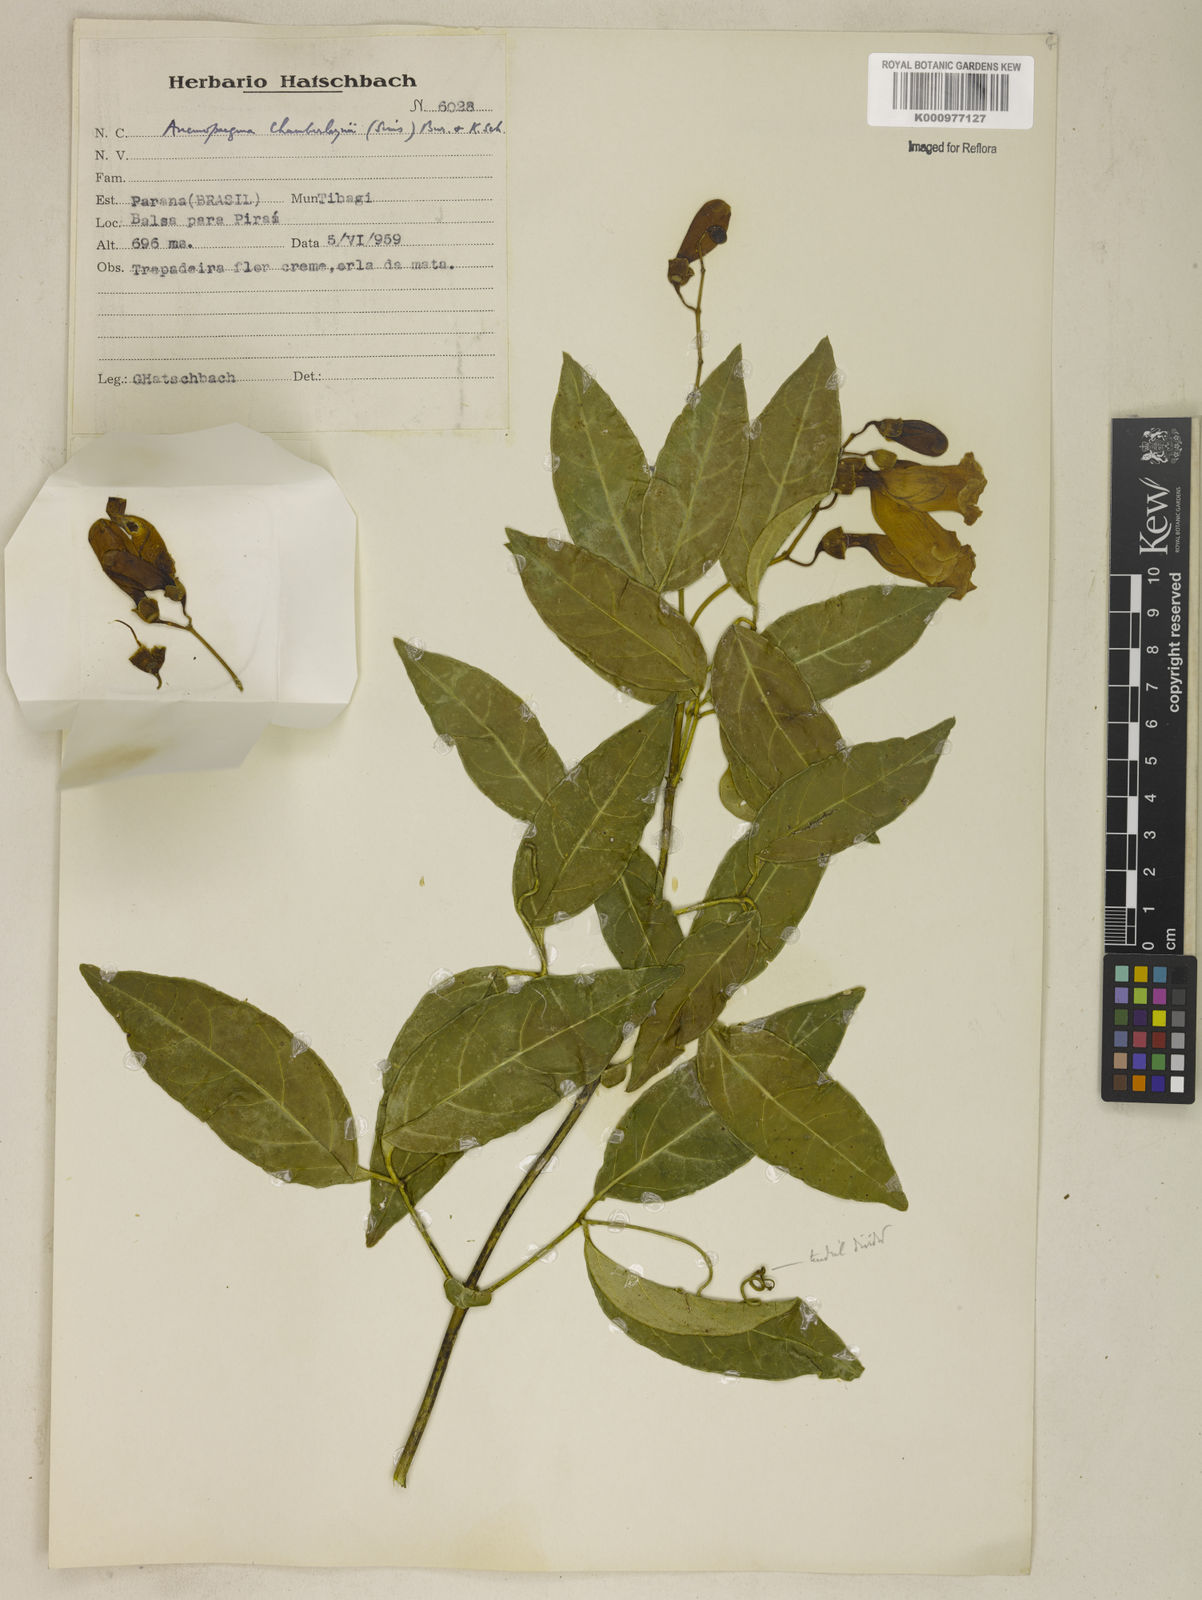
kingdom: Plantae
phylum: Tracheophyta
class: Magnoliopsida
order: Lamiales
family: Bignoniaceae
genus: Anemopaegma
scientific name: Anemopaegma chamberlaynii
